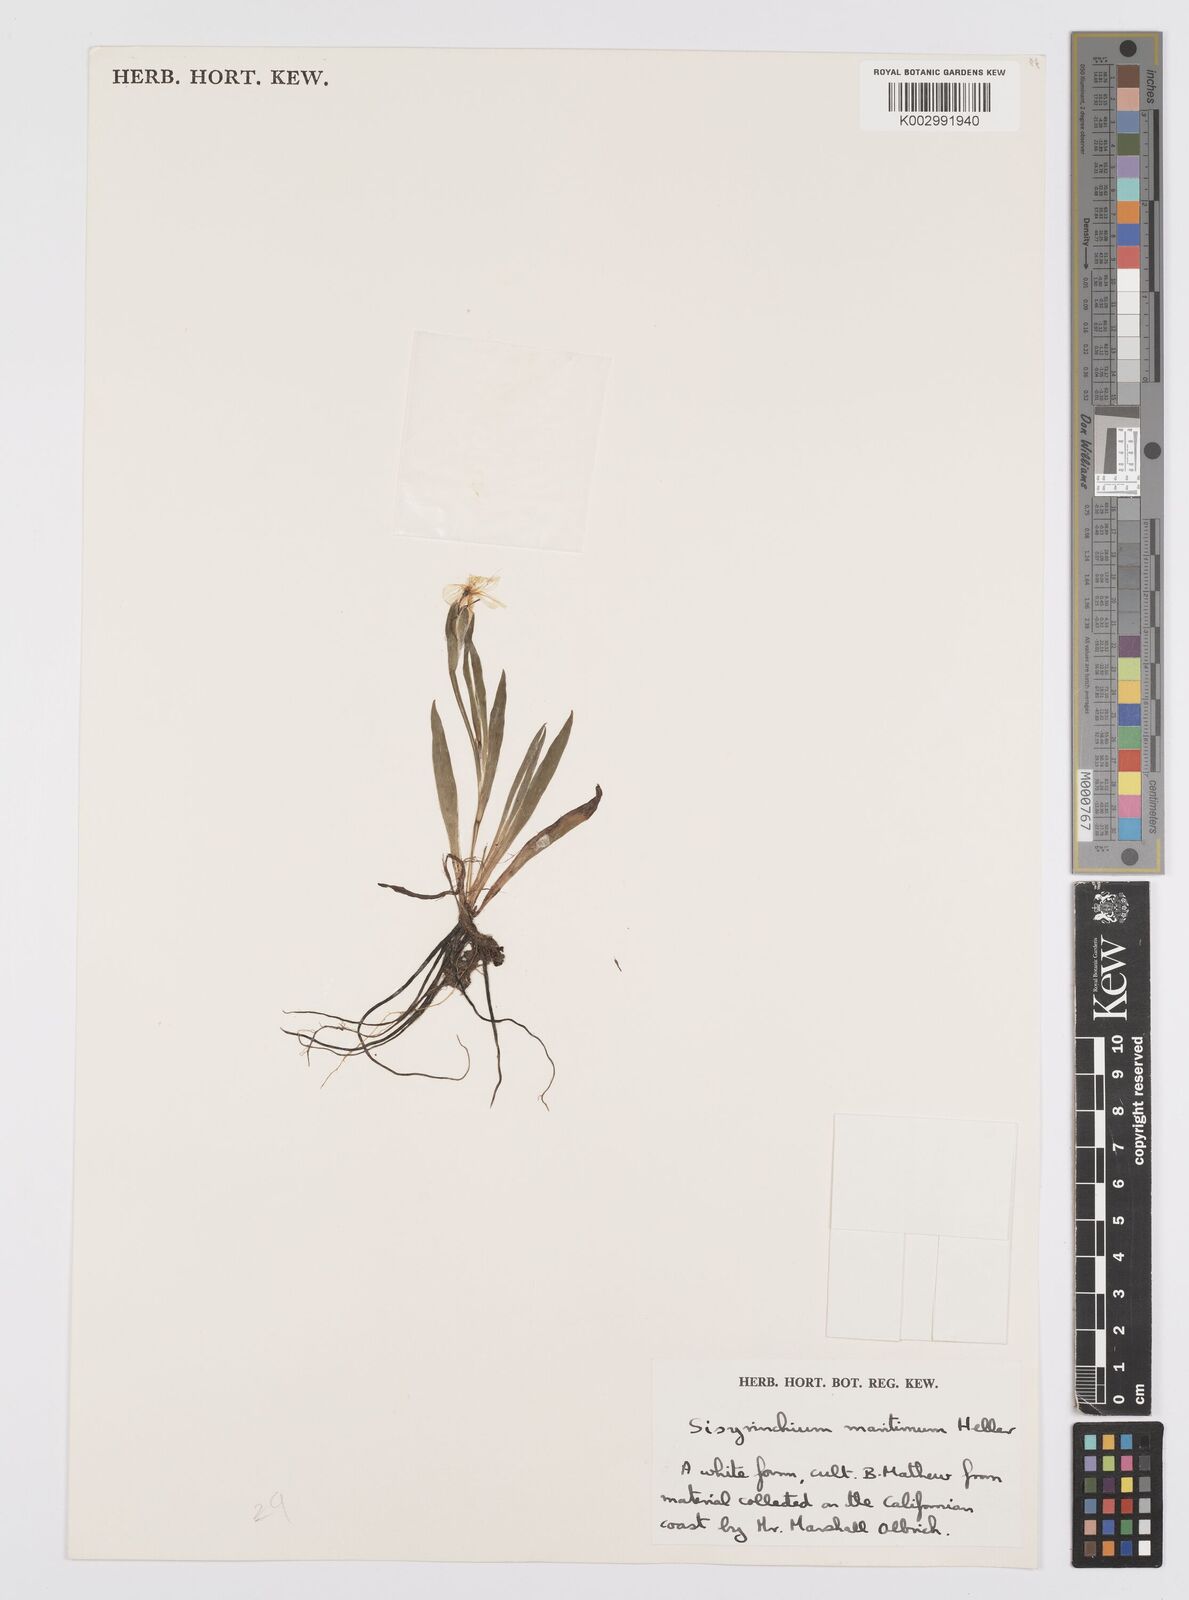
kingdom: Plantae
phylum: Tracheophyta
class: Liliopsida
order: Asparagales
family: Iridaceae
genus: Sisyrinchium
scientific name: Sisyrinchium bellum
